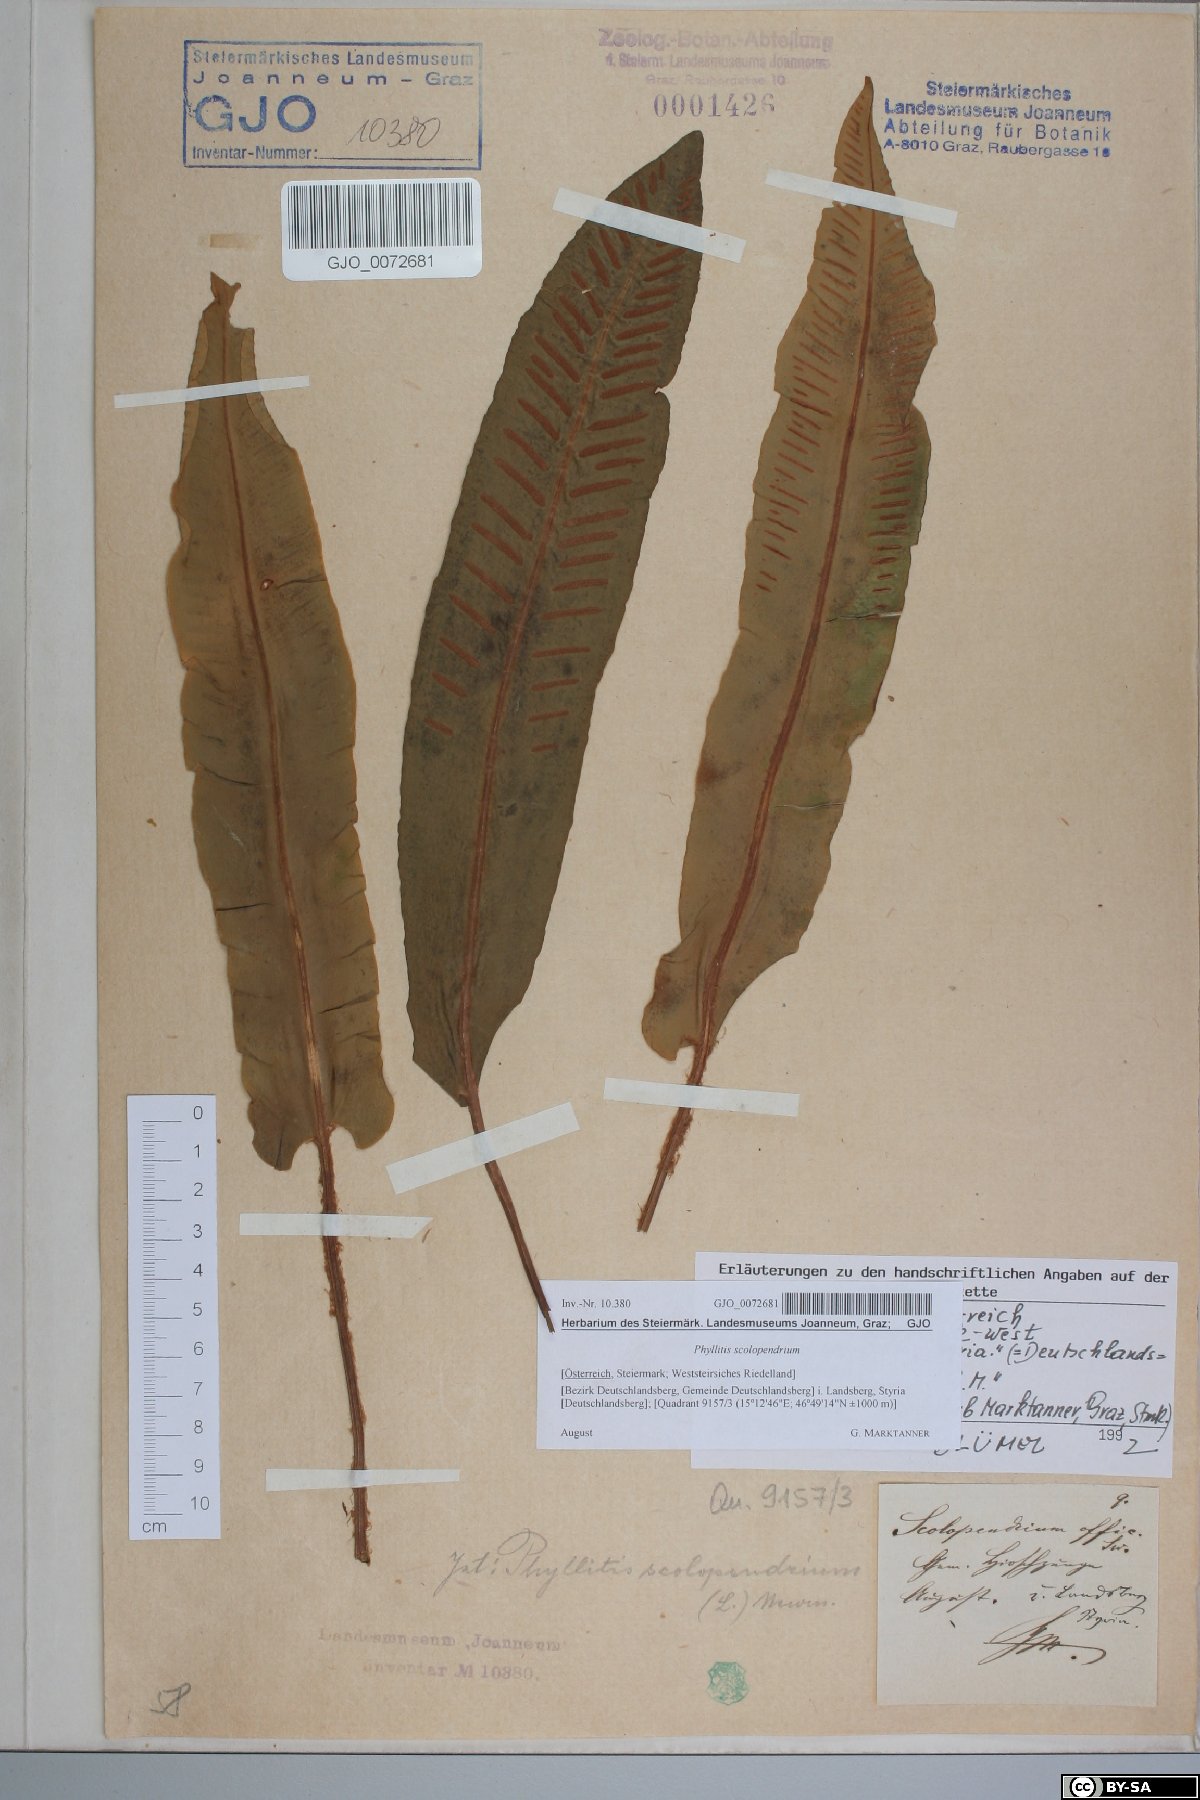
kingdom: Plantae
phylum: Tracheophyta
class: Polypodiopsida
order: Polypodiales
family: Aspleniaceae
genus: Asplenium
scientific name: Asplenium scolopendrium
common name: Hart's-tongue fern
